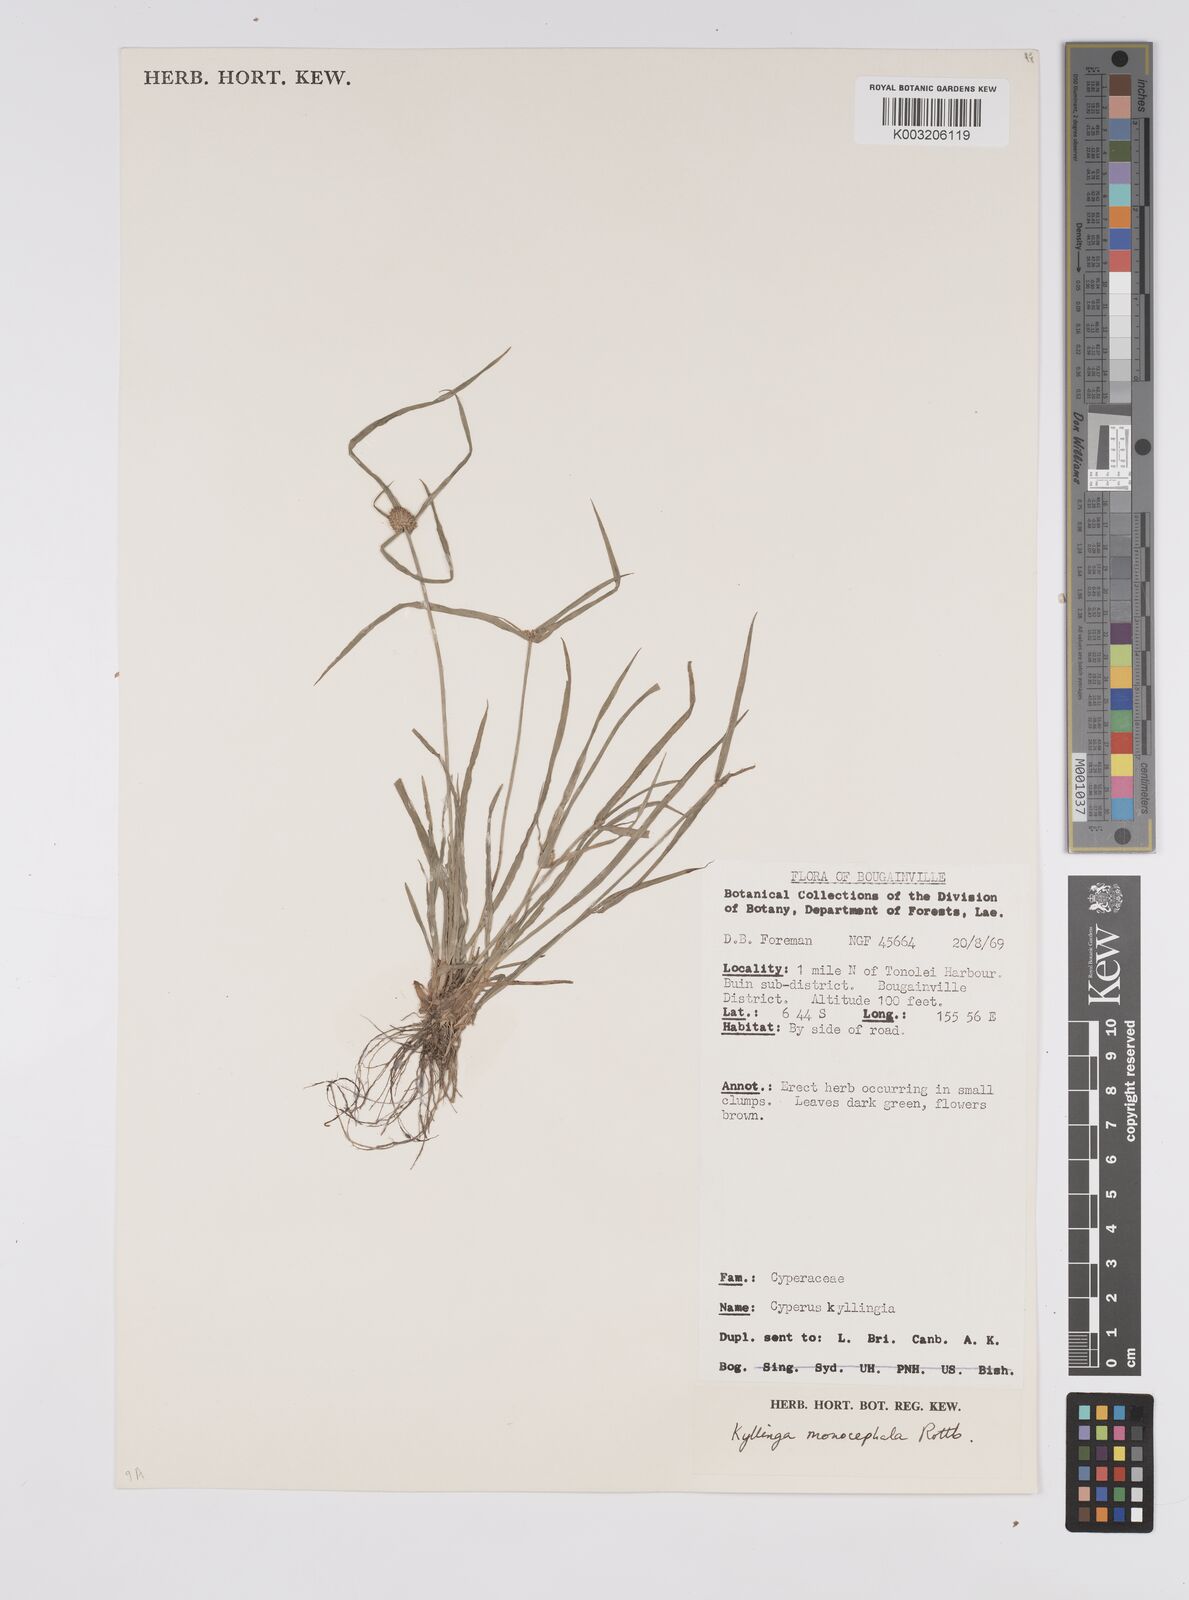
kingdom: Plantae
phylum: Tracheophyta
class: Liliopsida
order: Poales
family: Cyperaceae
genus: Cyperus
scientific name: Cyperus nemoralis
